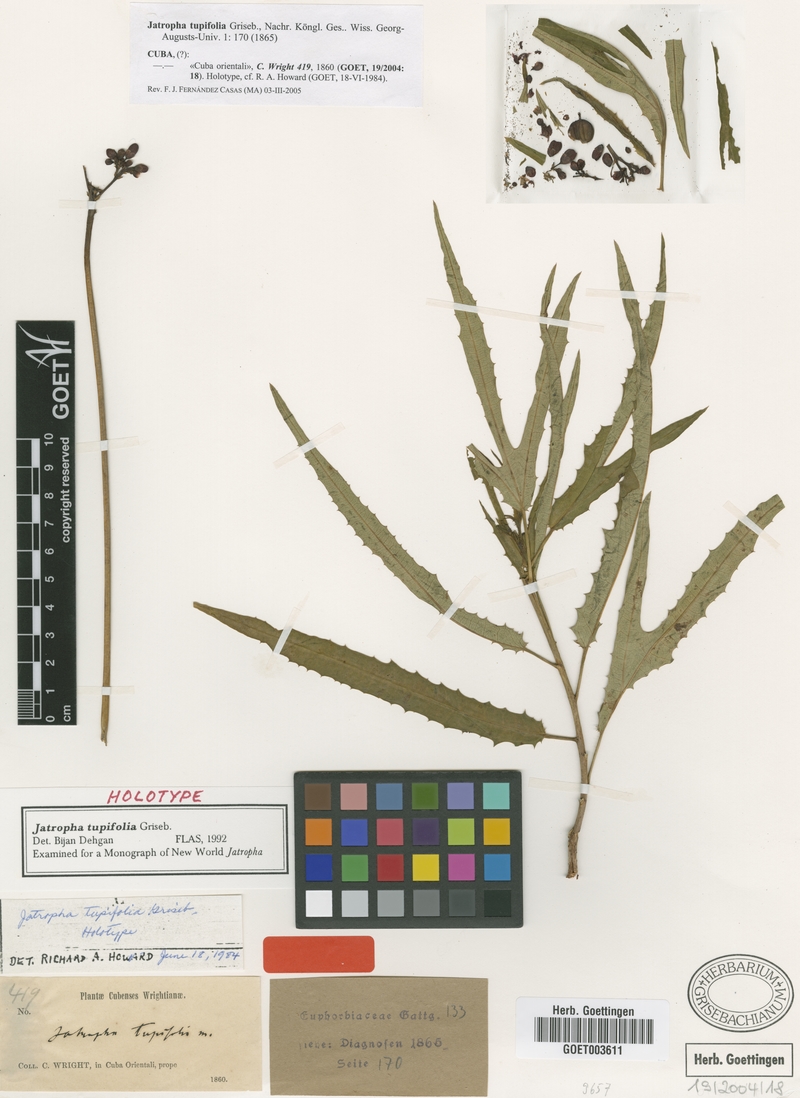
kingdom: Plantae
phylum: Tracheophyta
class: Magnoliopsida
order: Malpighiales
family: Euphorbiaceae
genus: Jatropha
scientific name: Jatropha tupifolia
